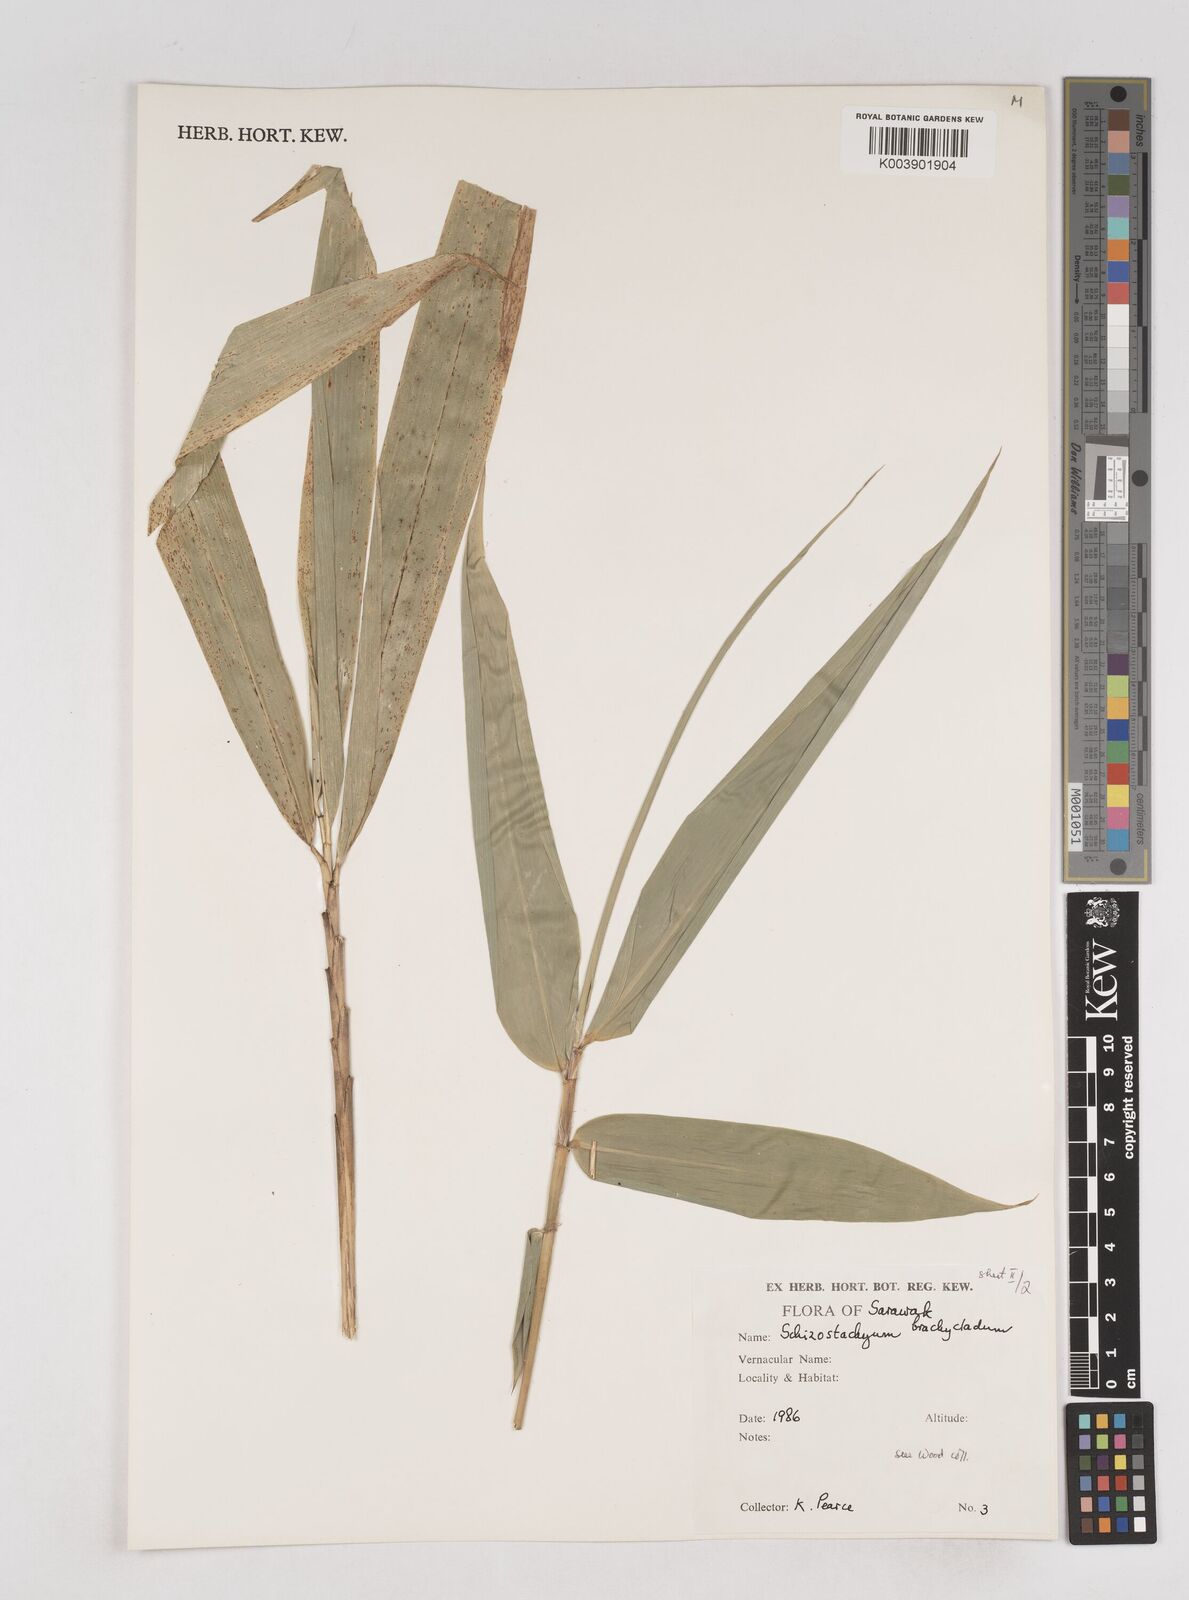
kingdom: Plantae
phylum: Tracheophyta
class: Liliopsida
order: Poales
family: Poaceae
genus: Schizostachyum
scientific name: Schizostachyum
